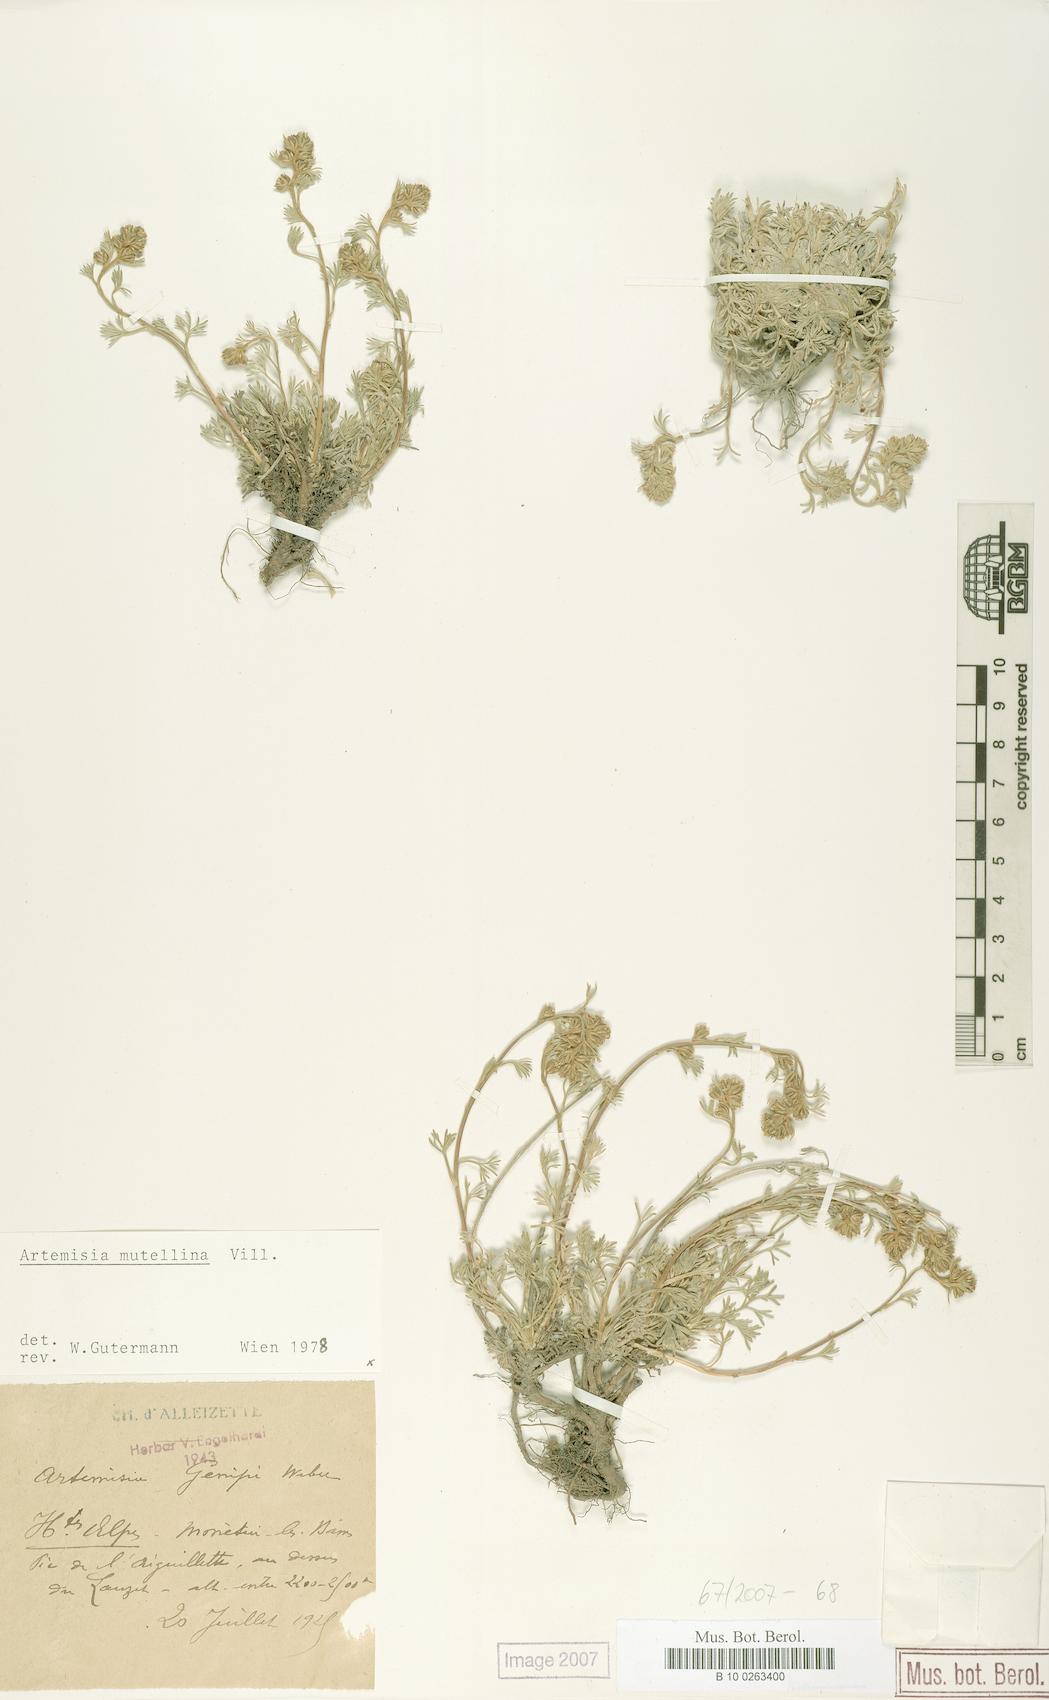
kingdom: Plantae
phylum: Tracheophyta
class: Magnoliopsida
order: Asterales
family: Asteraceae
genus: Artemisia
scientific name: Artemisia mutellina
